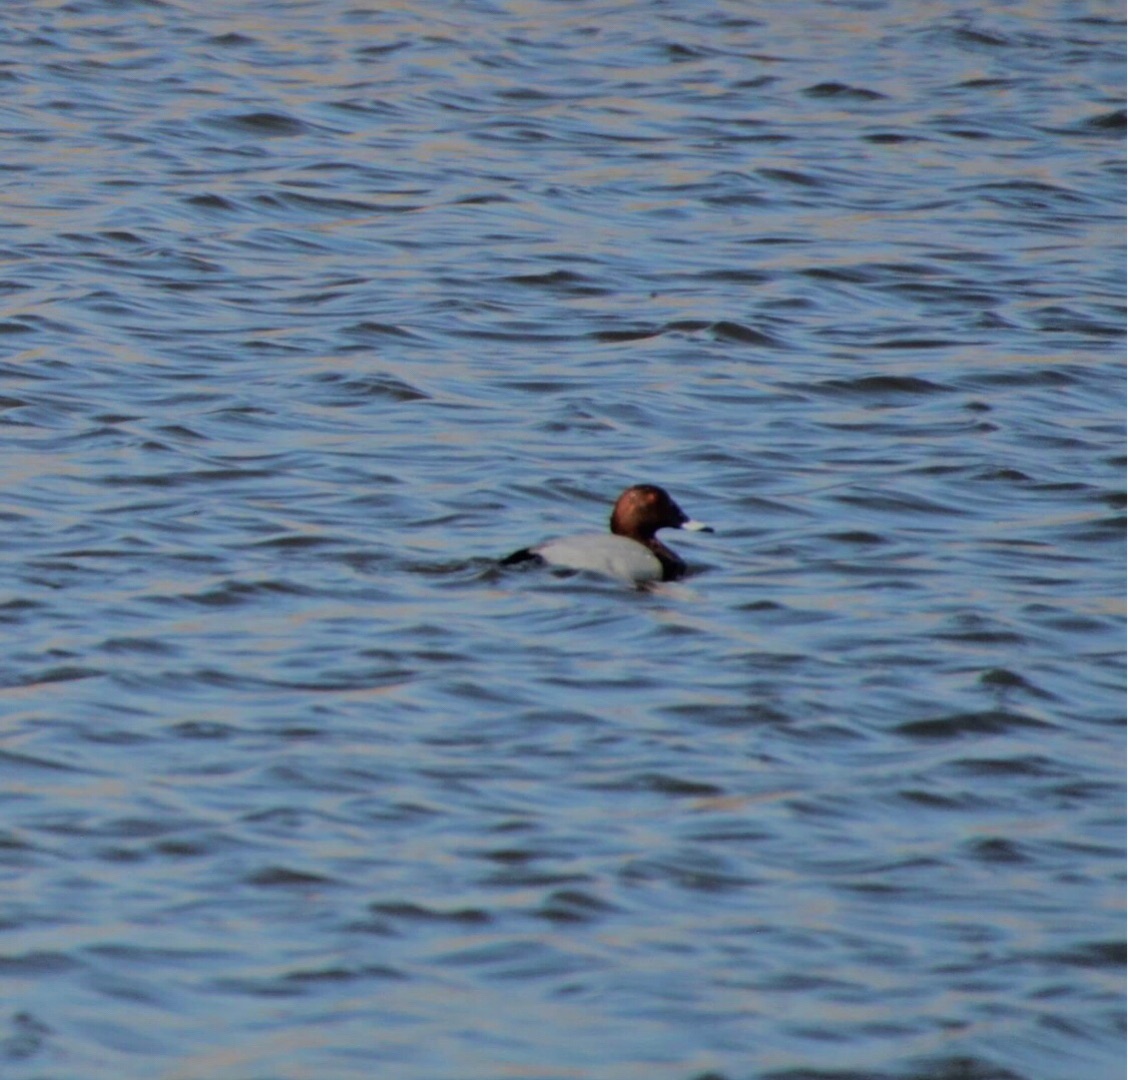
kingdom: Animalia
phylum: Chordata
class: Aves
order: Anseriformes
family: Anatidae
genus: Aythya
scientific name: Aythya ferina
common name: Taffeland
